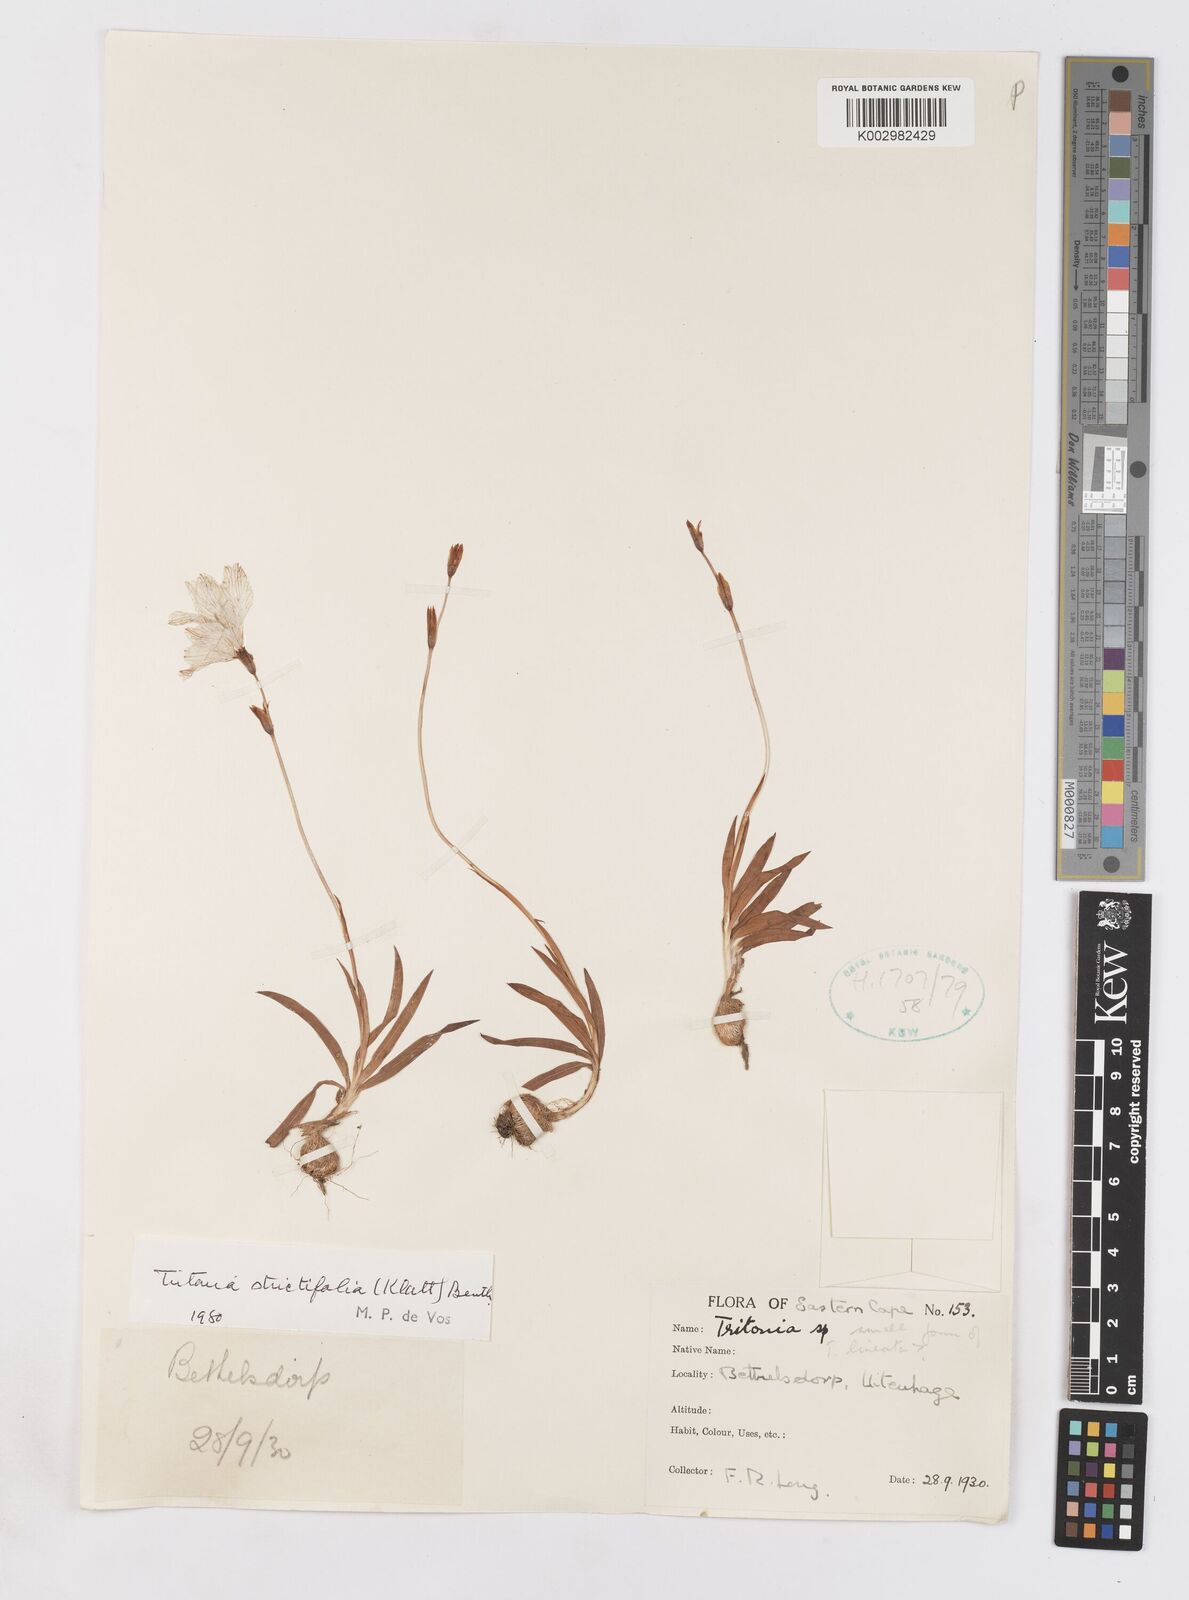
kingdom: Plantae
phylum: Tracheophyta
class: Liliopsida
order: Asparagales
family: Iridaceae
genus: Tritonia
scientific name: Tritonia laxifolia
